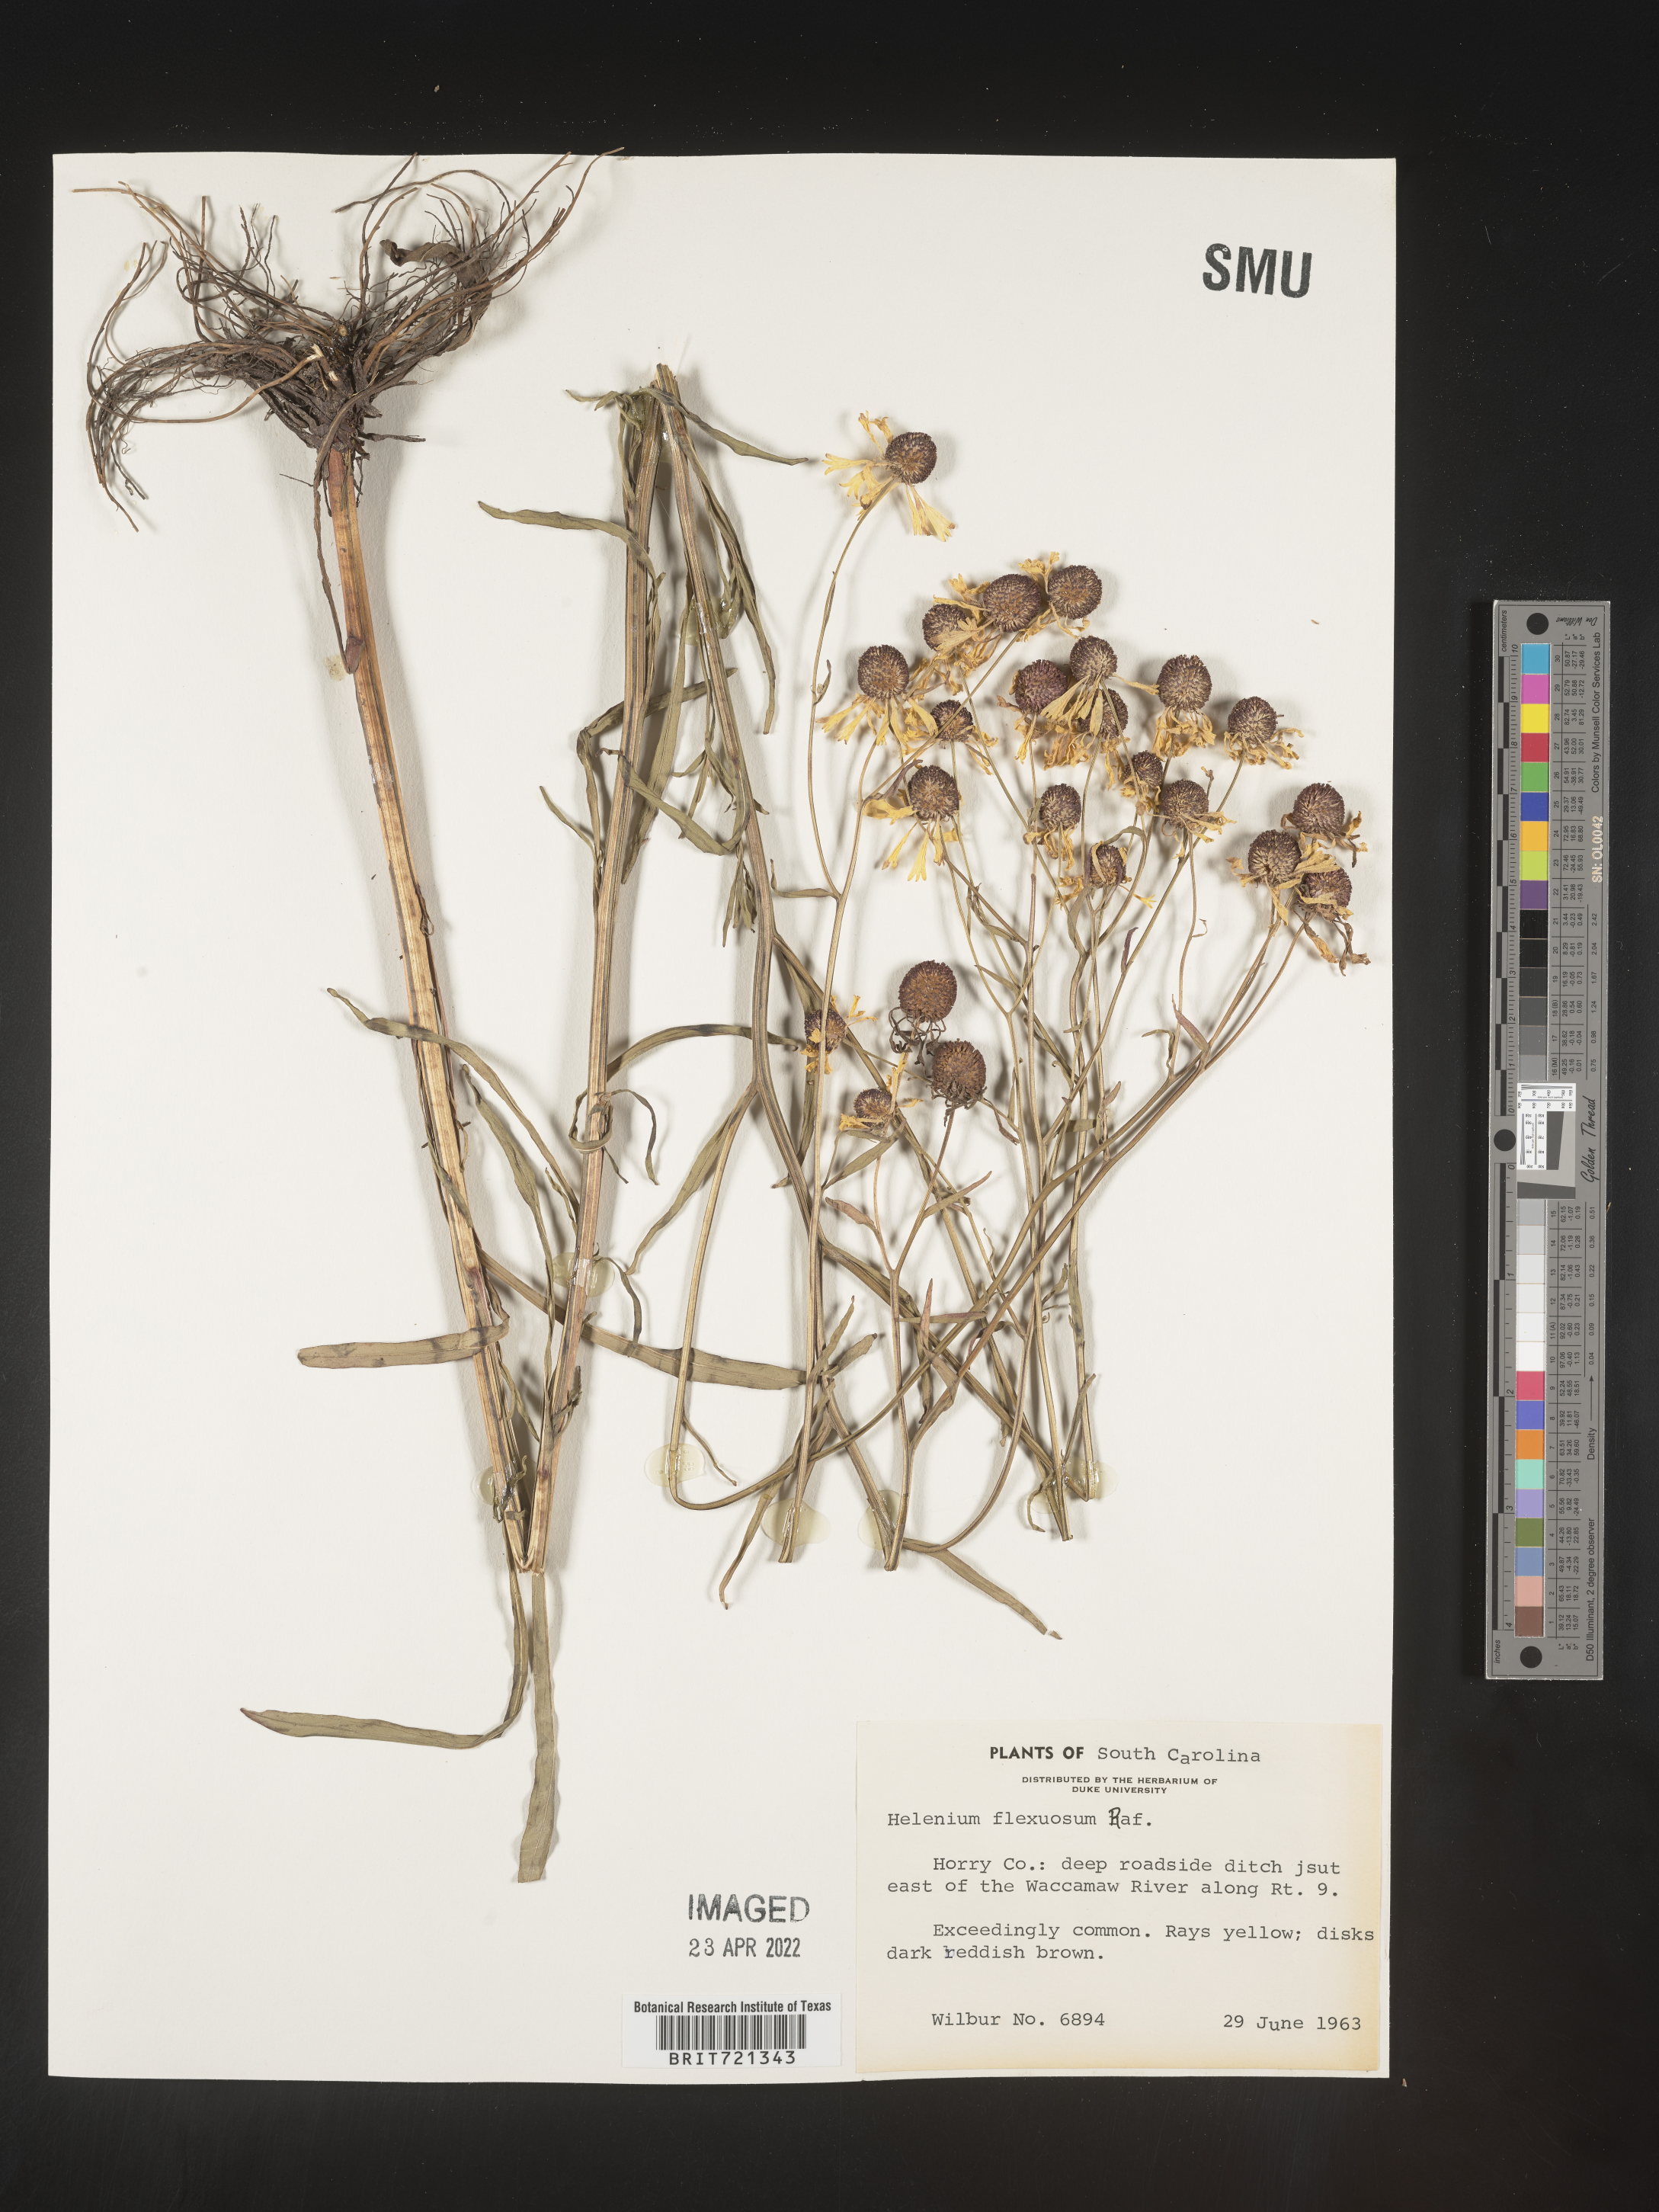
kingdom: Plantae
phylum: Tracheophyta
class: Magnoliopsida
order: Asterales
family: Asteraceae
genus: Helenium
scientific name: Helenium flexuosum
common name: Naked-flowered sneezeweed
